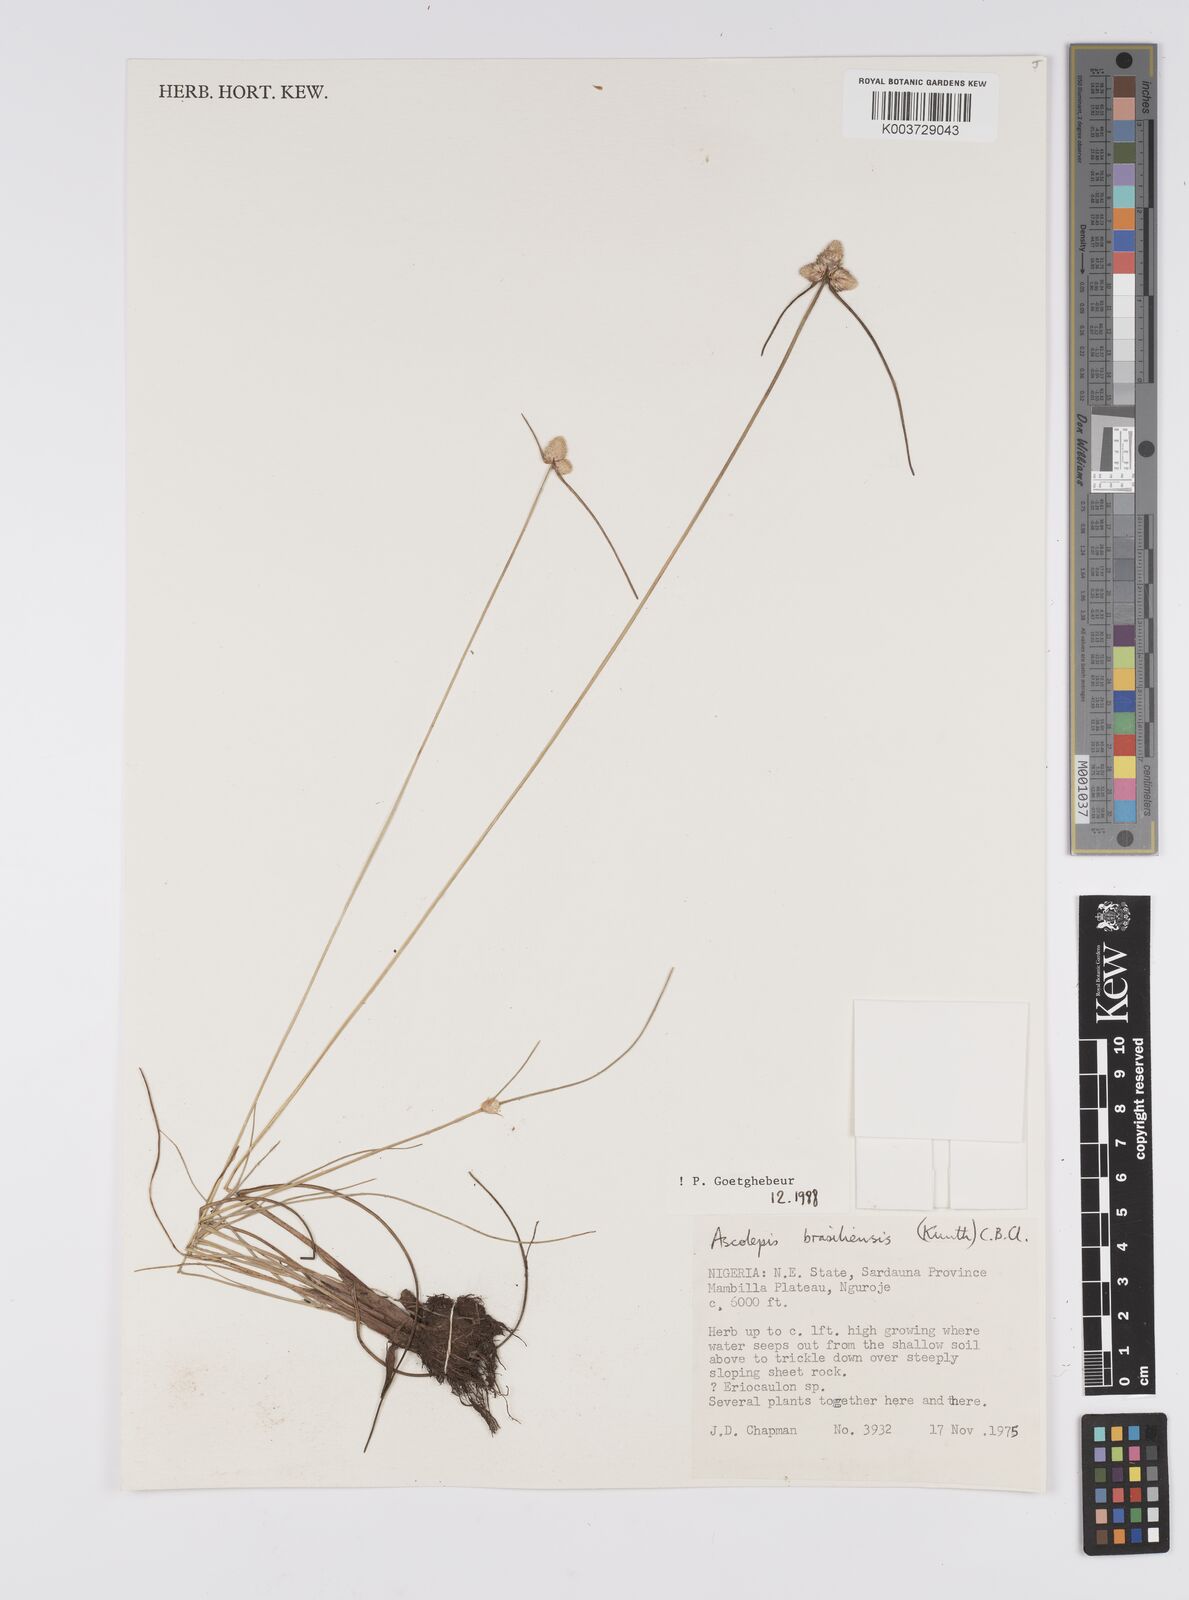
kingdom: Plantae
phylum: Tracheophyta
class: Liliopsida
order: Poales
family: Cyperaceae
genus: Cyperus
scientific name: Cyperus brasiliensis
